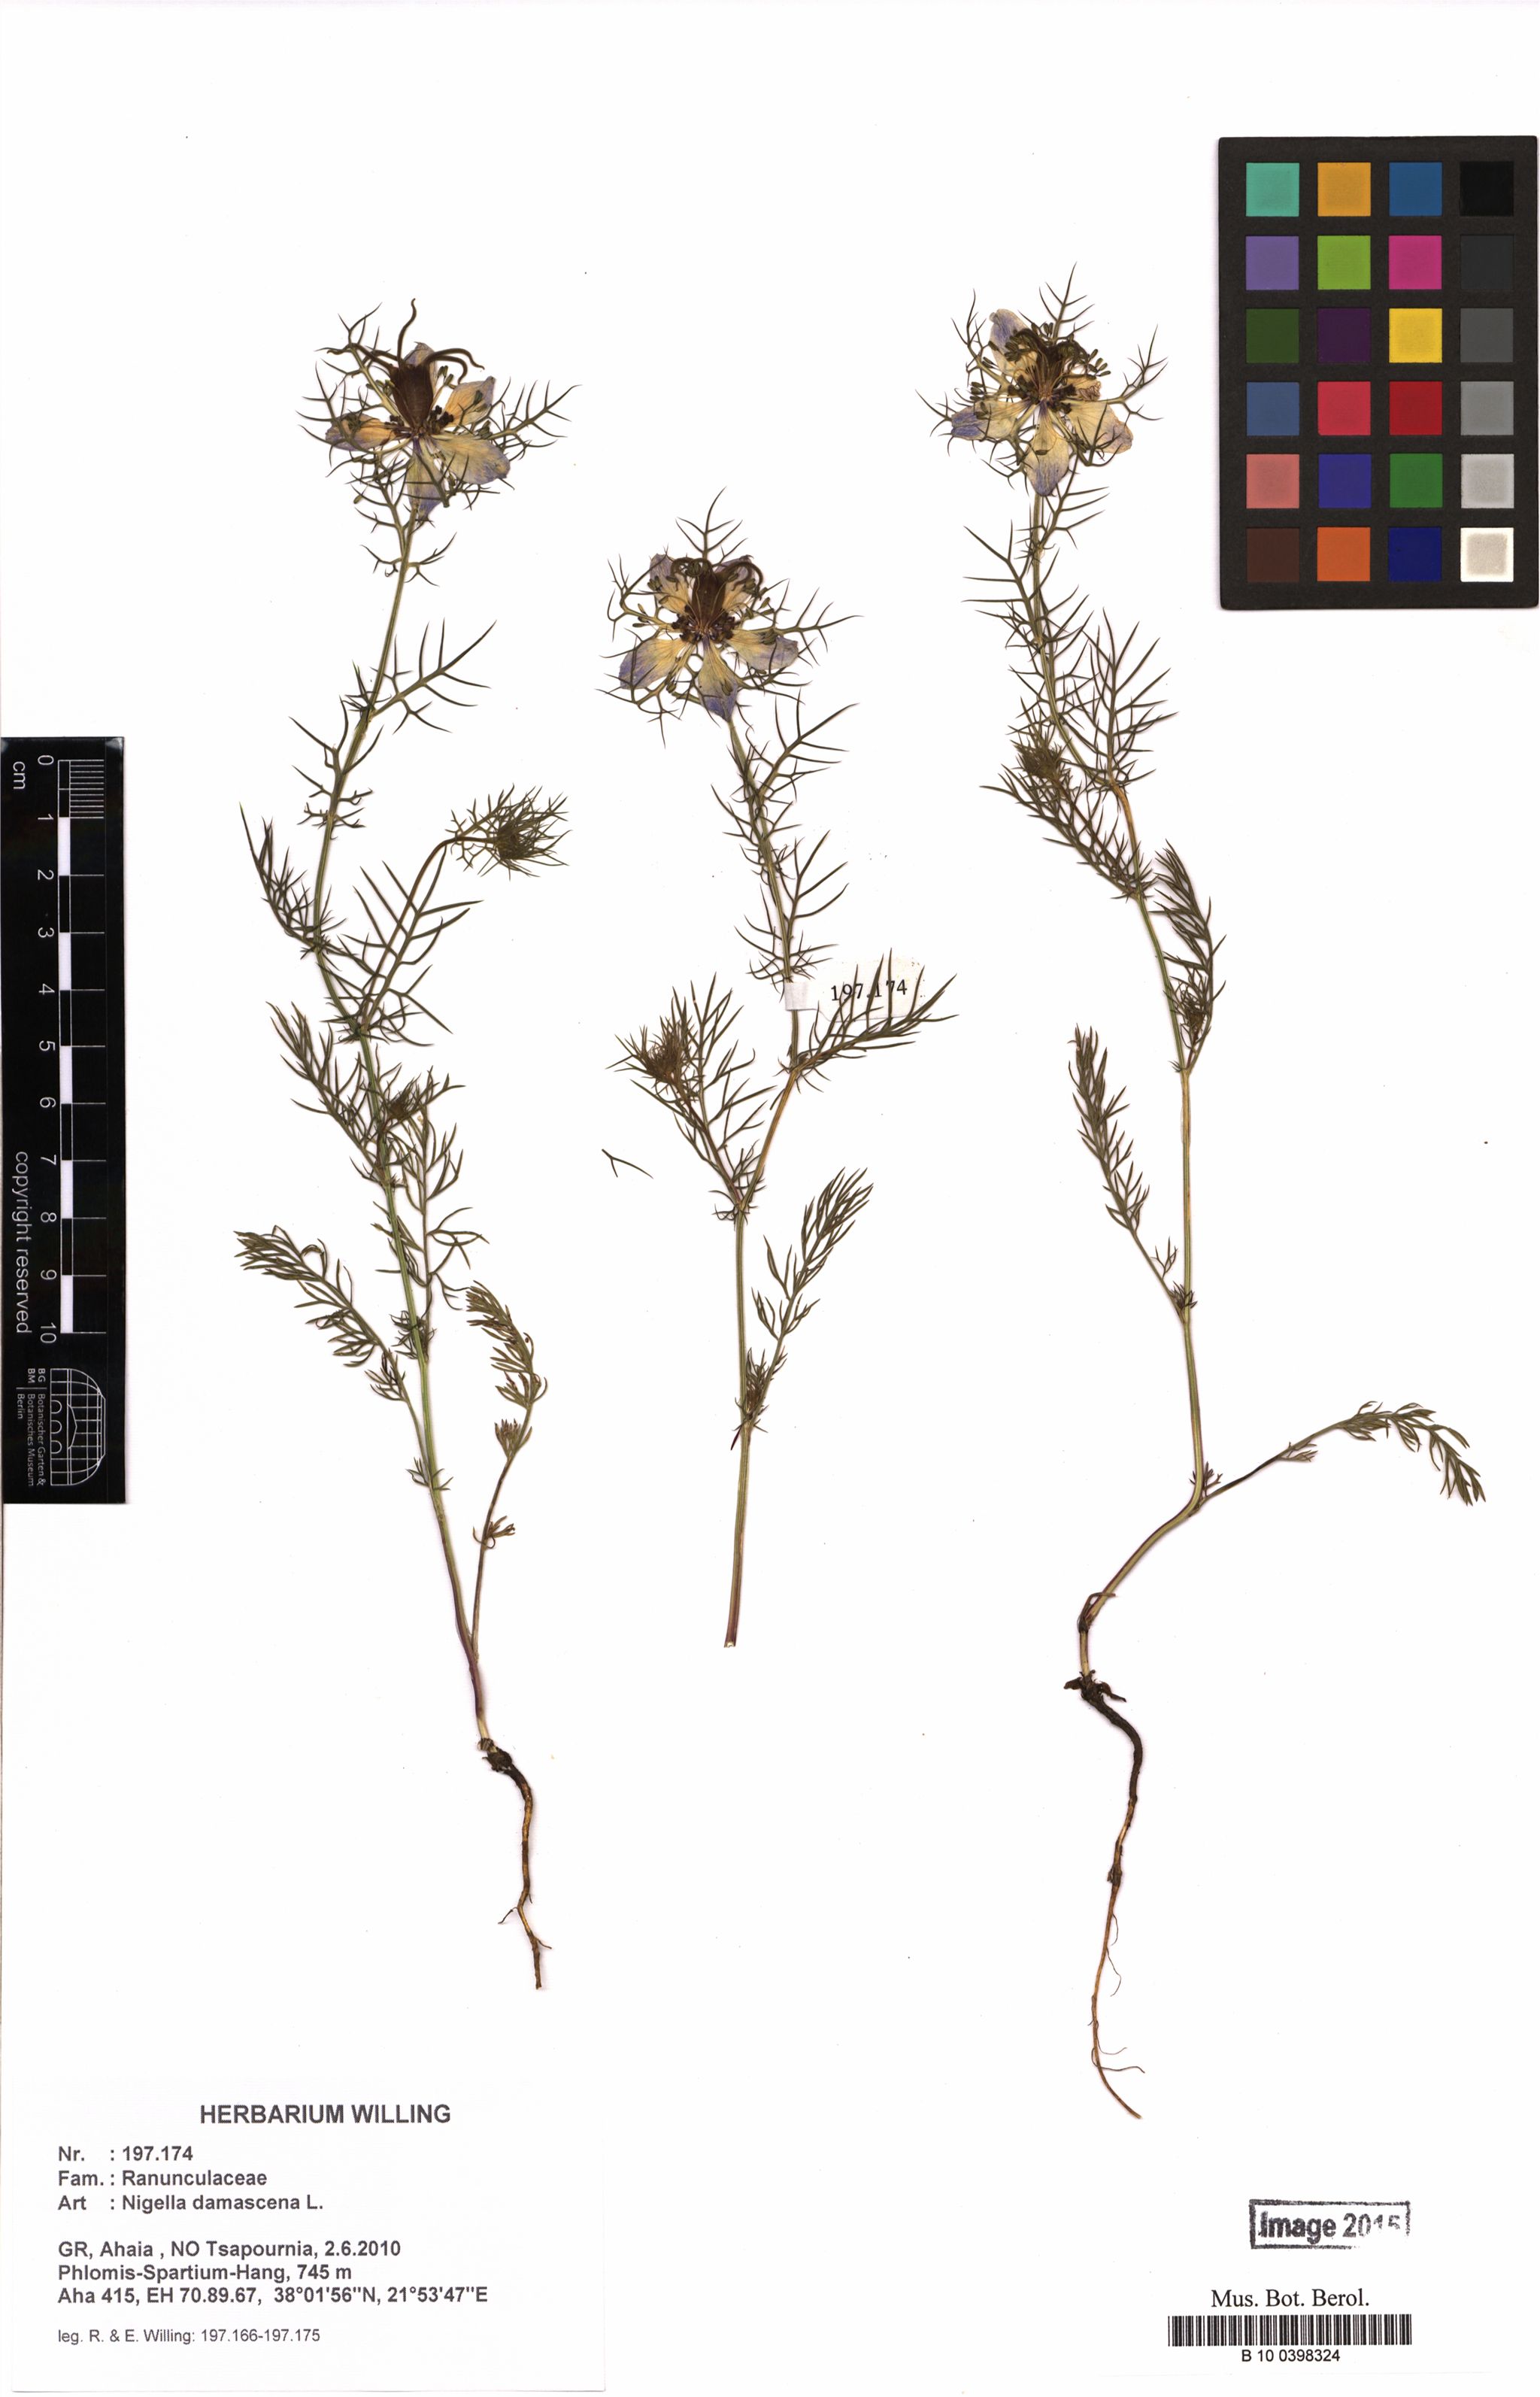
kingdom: Plantae
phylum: Tracheophyta
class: Magnoliopsida
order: Ranunculales
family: Ranunculaceae
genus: Nigella
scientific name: Nigella damascena
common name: Love-in-a-mist
